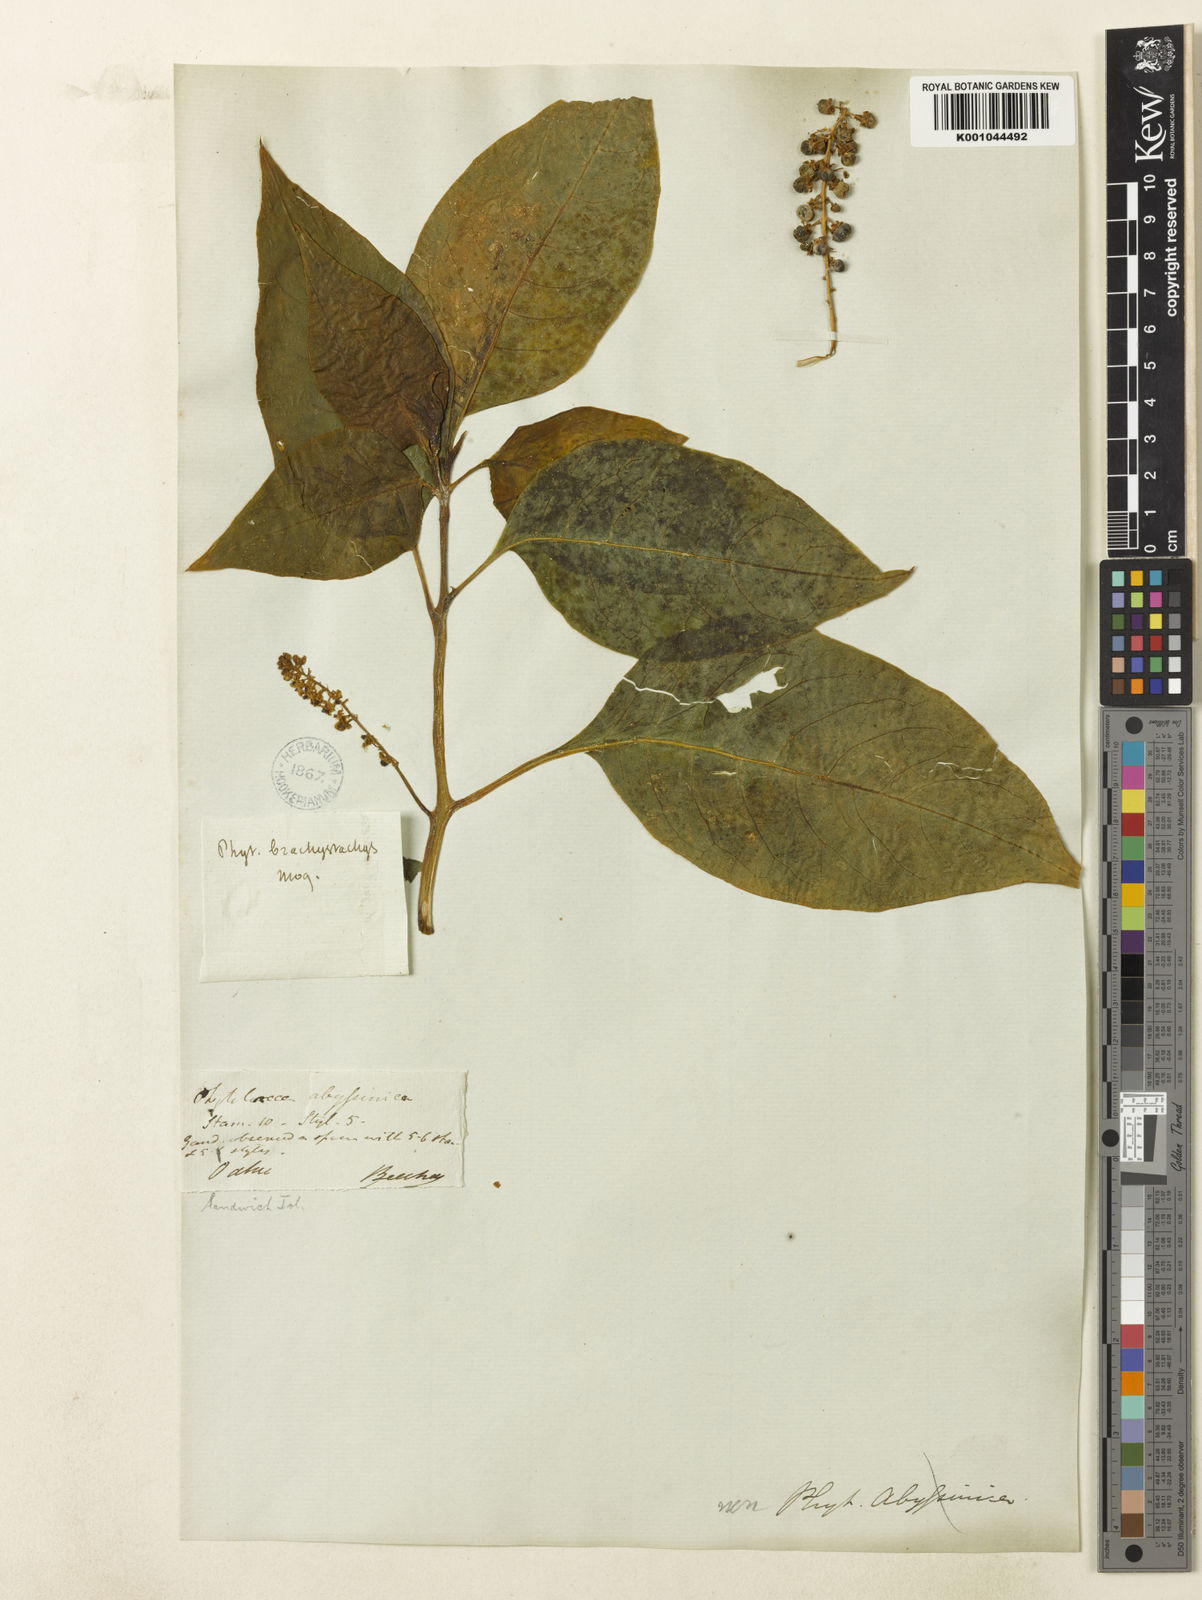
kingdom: Plantae
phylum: Tracheophyta
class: Magnoliopsida
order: Caryophyllales
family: Phytolaccaceae
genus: Phytolacca
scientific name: Phytolacca sandwicensis
